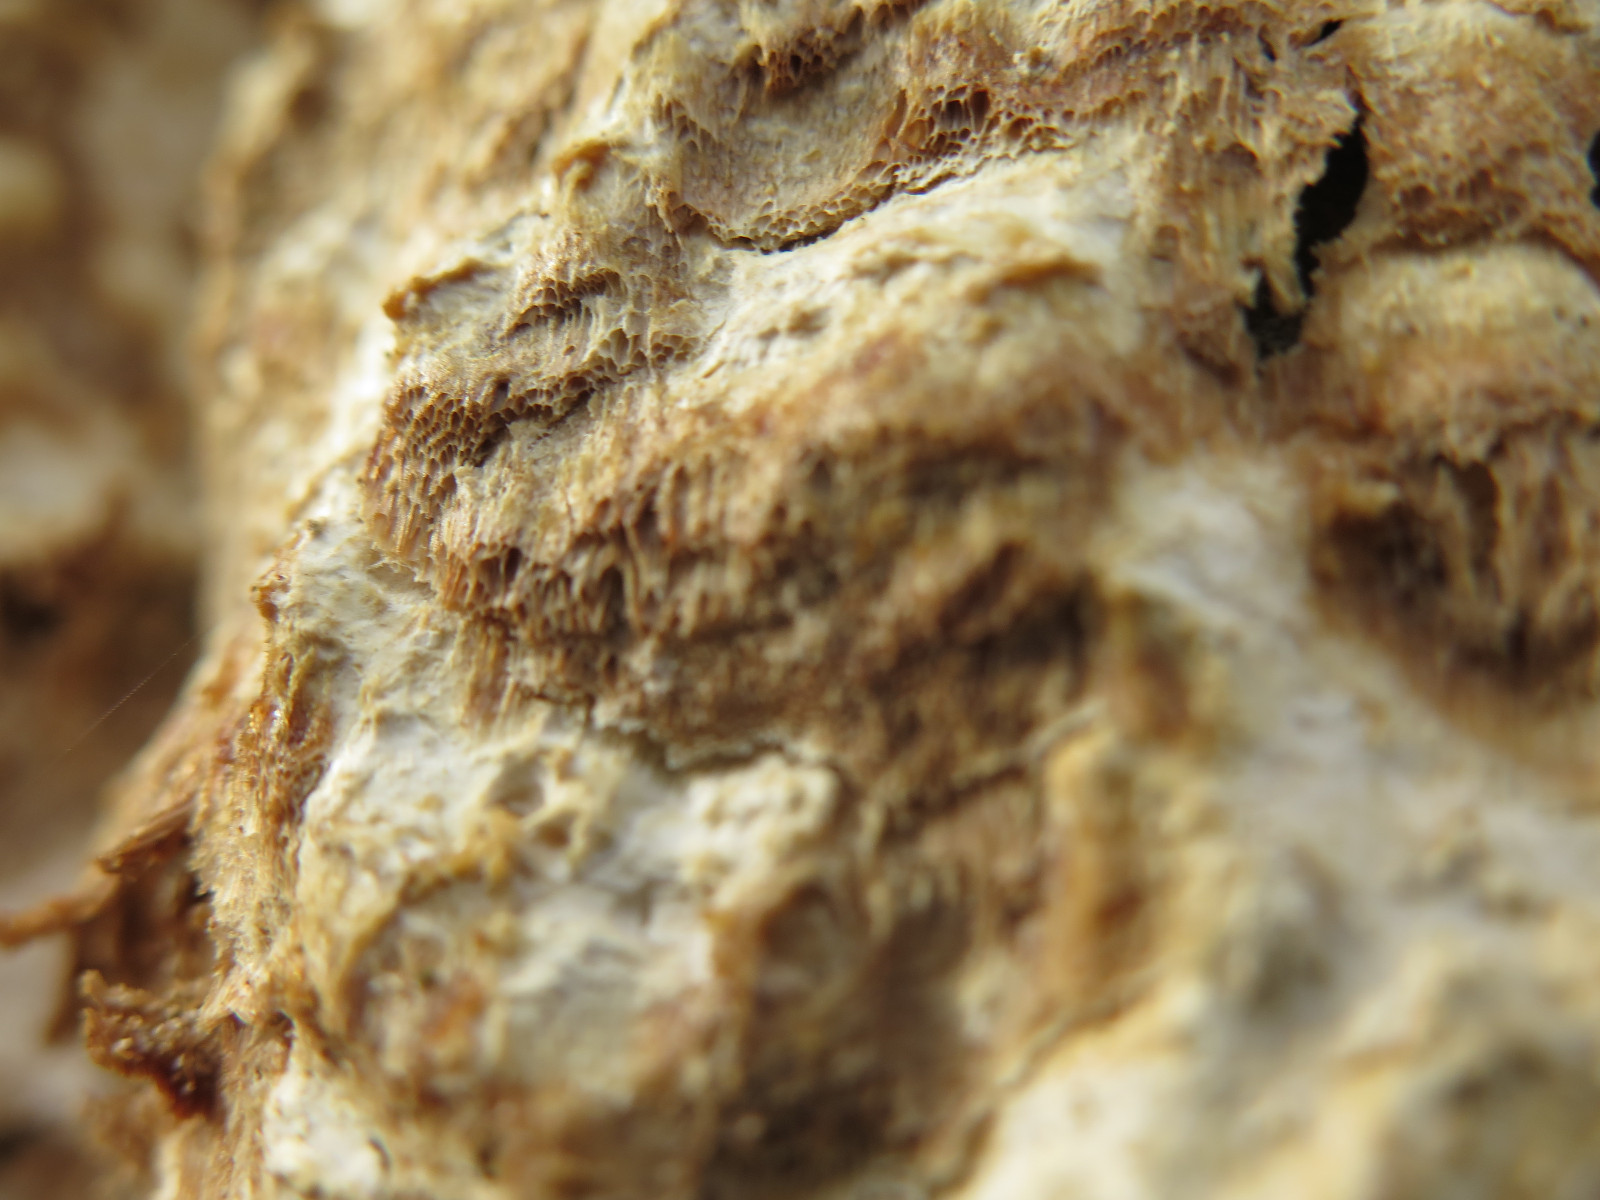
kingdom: Fungi
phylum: Basidiomycota
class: Agaricomycetes
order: Polyporales
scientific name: Polyporales
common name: poresvampordenen
